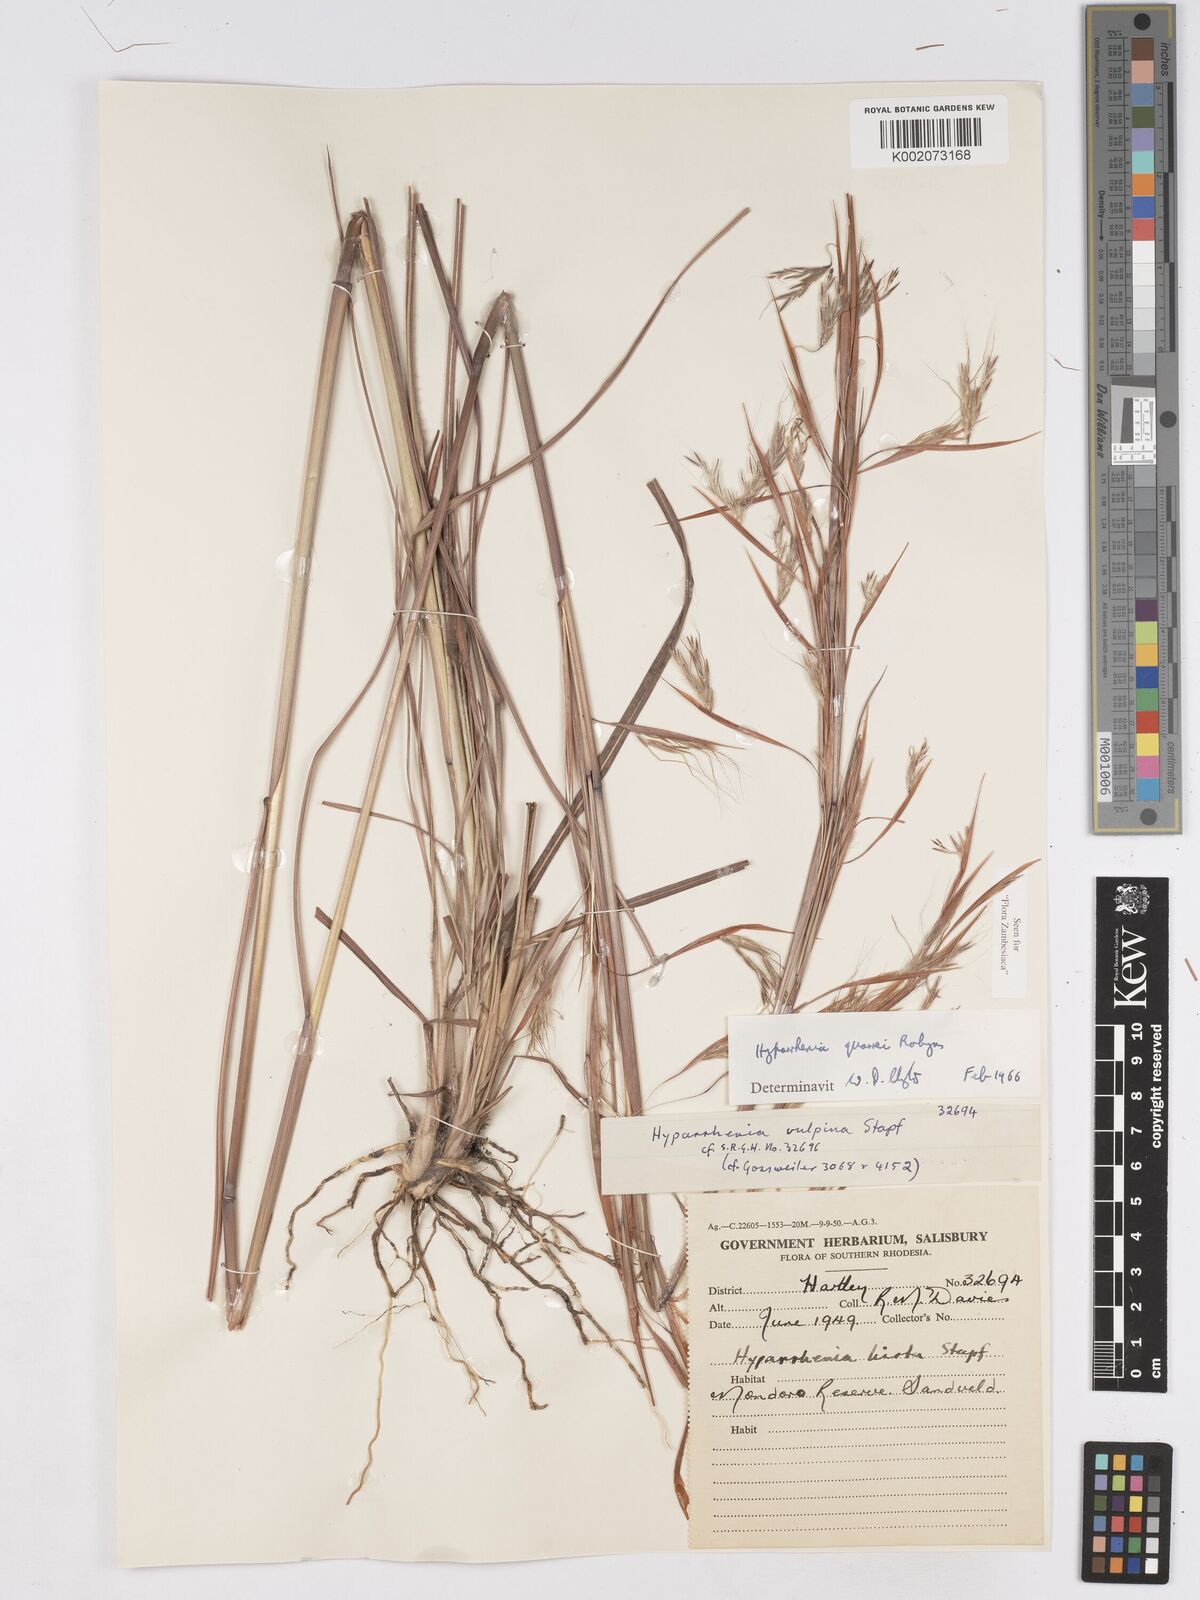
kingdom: Plantae
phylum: Tracheophyta
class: Liliopsida
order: Poales
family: Poaceae
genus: Hyparrhenia
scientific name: Hyparrhenia quarrei
